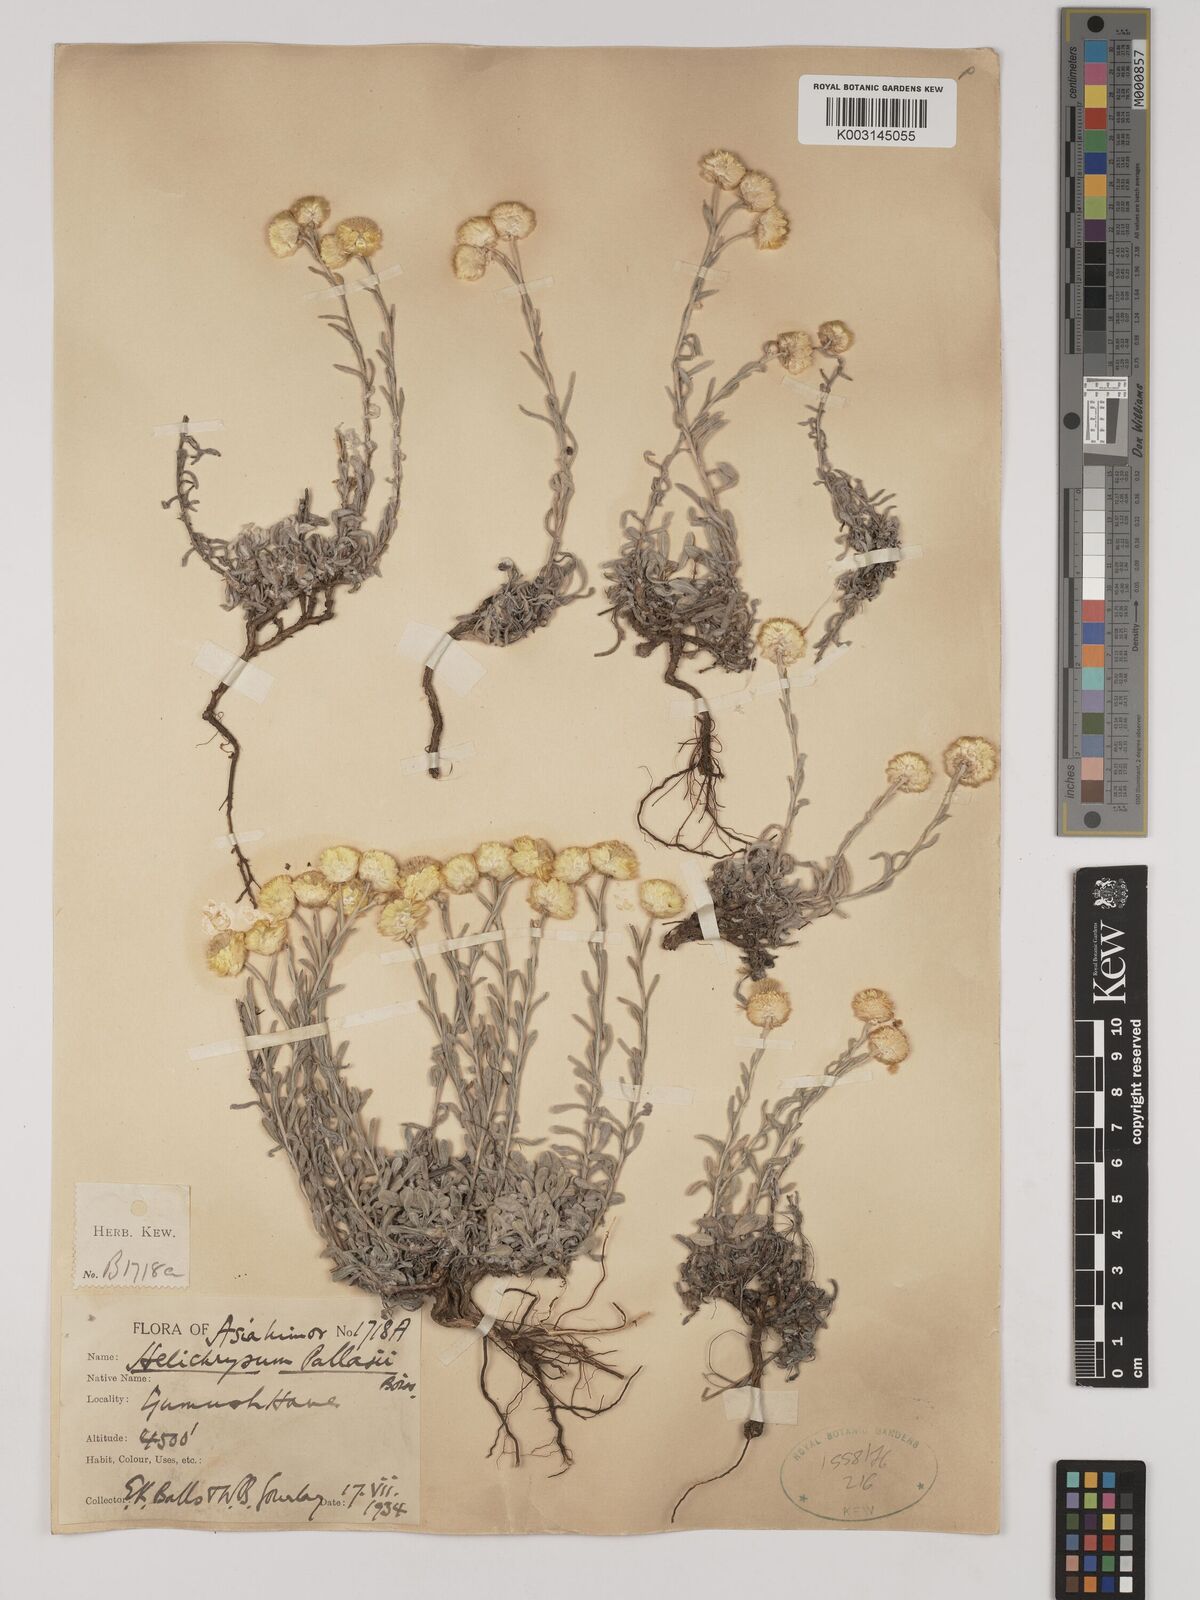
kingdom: Plantae
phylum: Tracheophyta
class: Magnoliopsida
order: Asterales
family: Asteraceae
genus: Helichrysum
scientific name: Helichrysum pallasii
